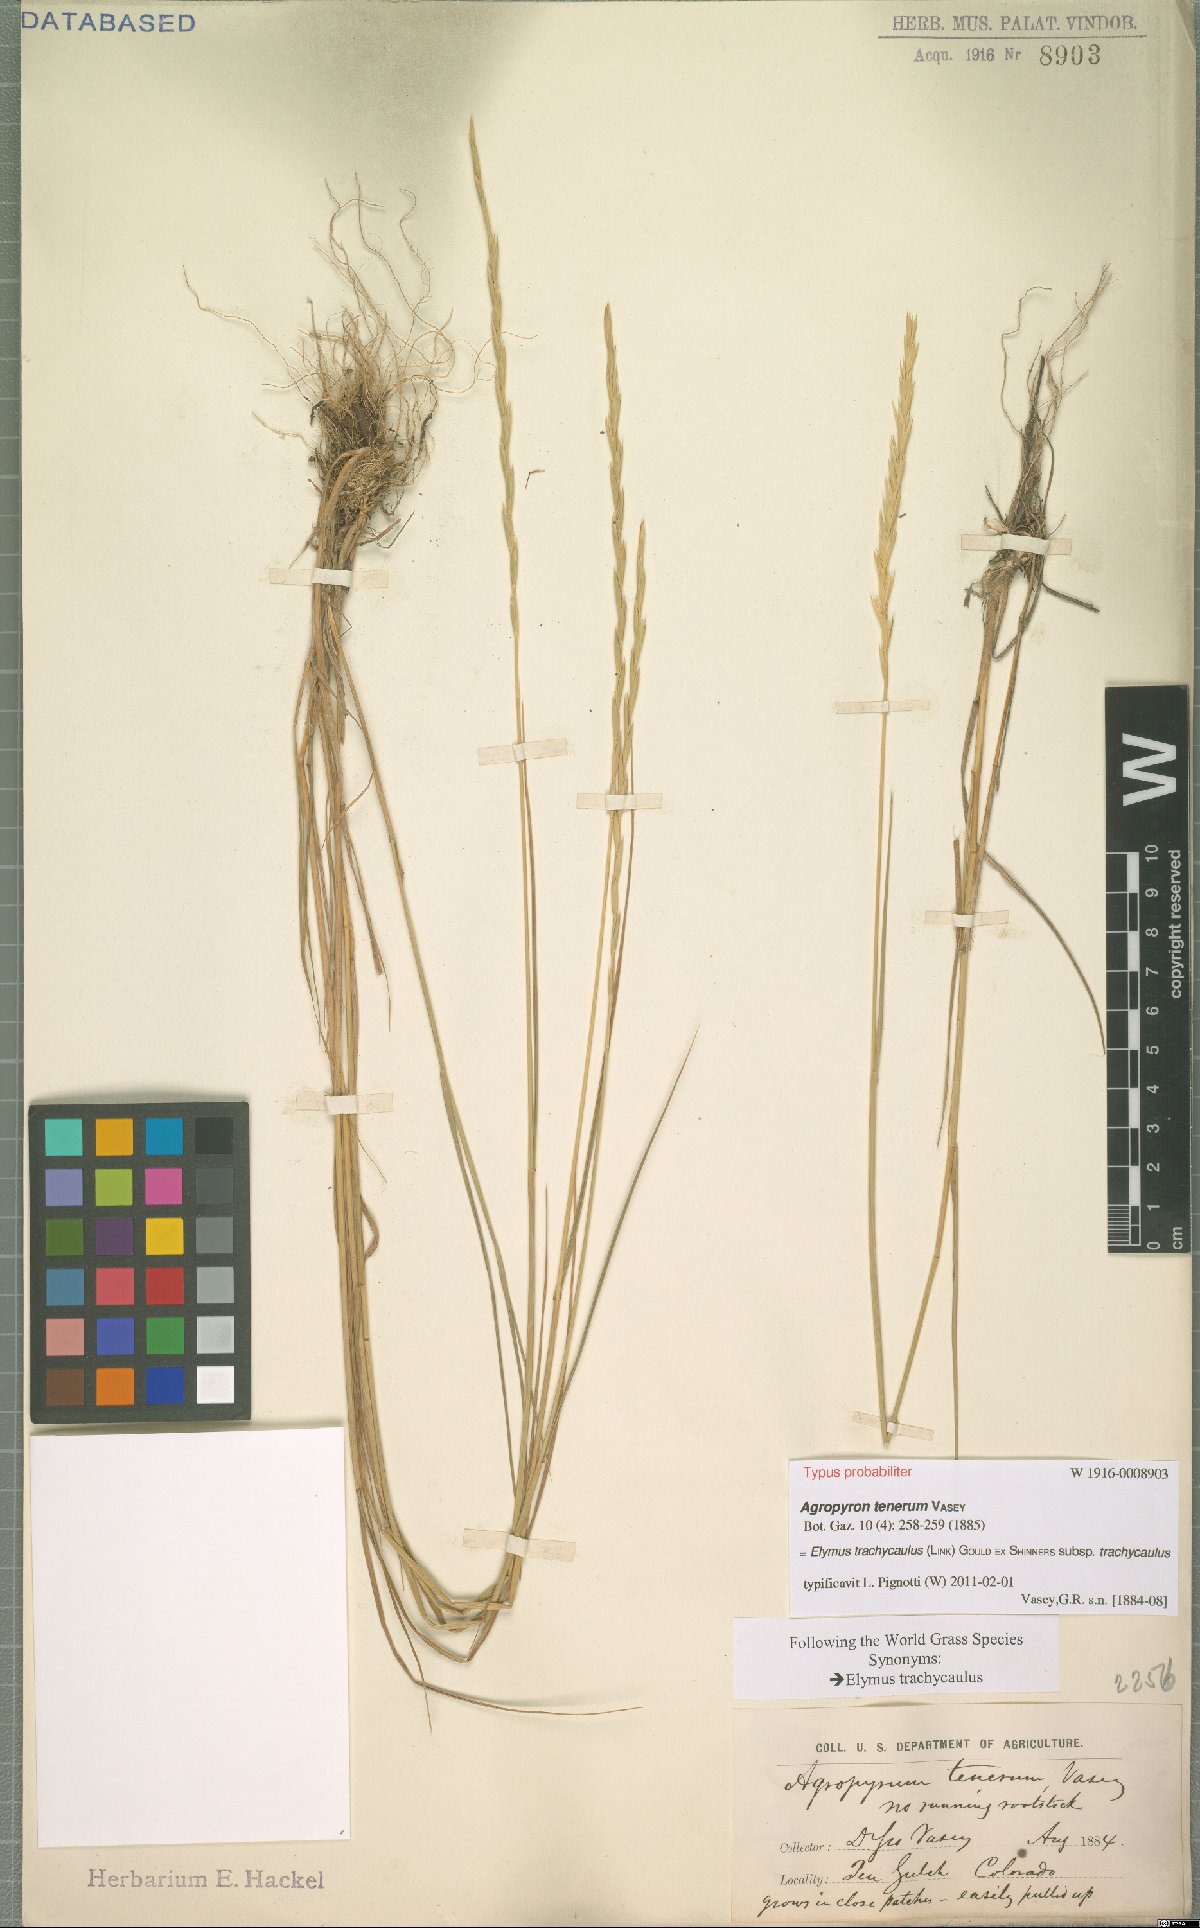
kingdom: Plantae
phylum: Tracheophyta
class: Liliopsida
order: Poales
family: Poaceae
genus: Elymus
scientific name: Elymus violaceus
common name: Arctic wheatgrass
